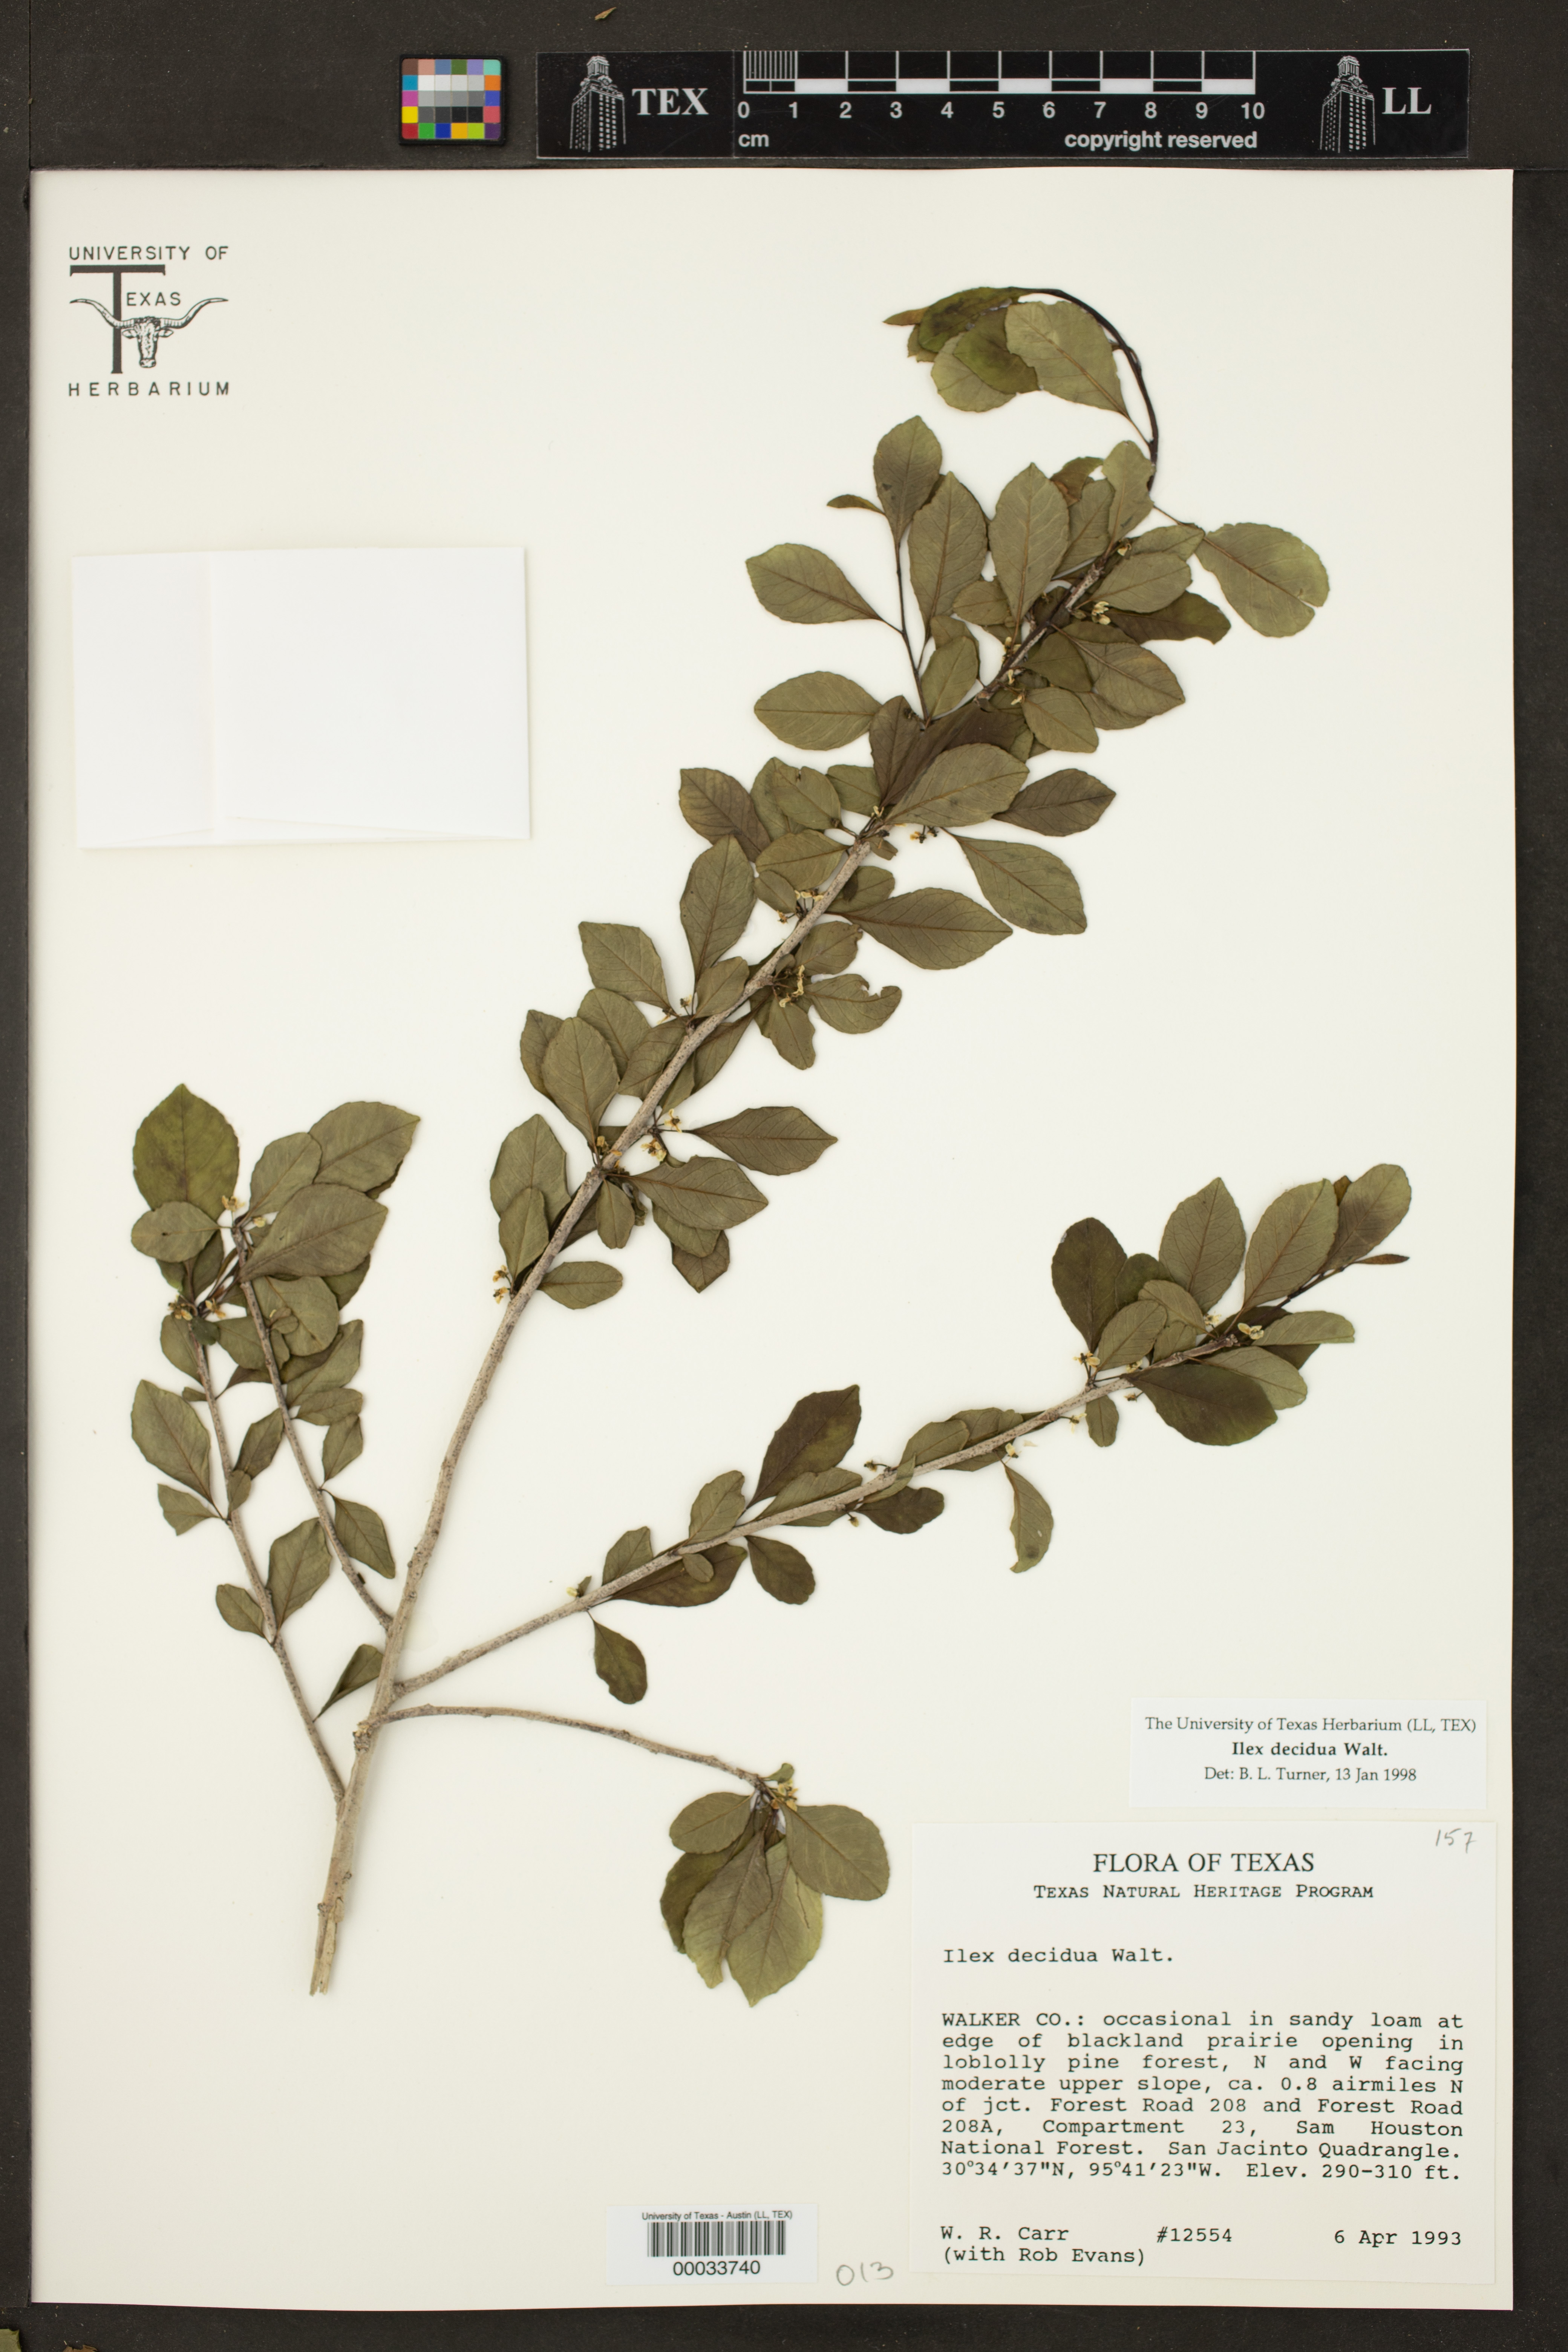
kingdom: Plantae
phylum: Tracheophyta
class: Magnoliopsida
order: Aquifoliales
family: Aquifoliaceae
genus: Ilex
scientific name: Ilex decidua
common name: Possum-haw
